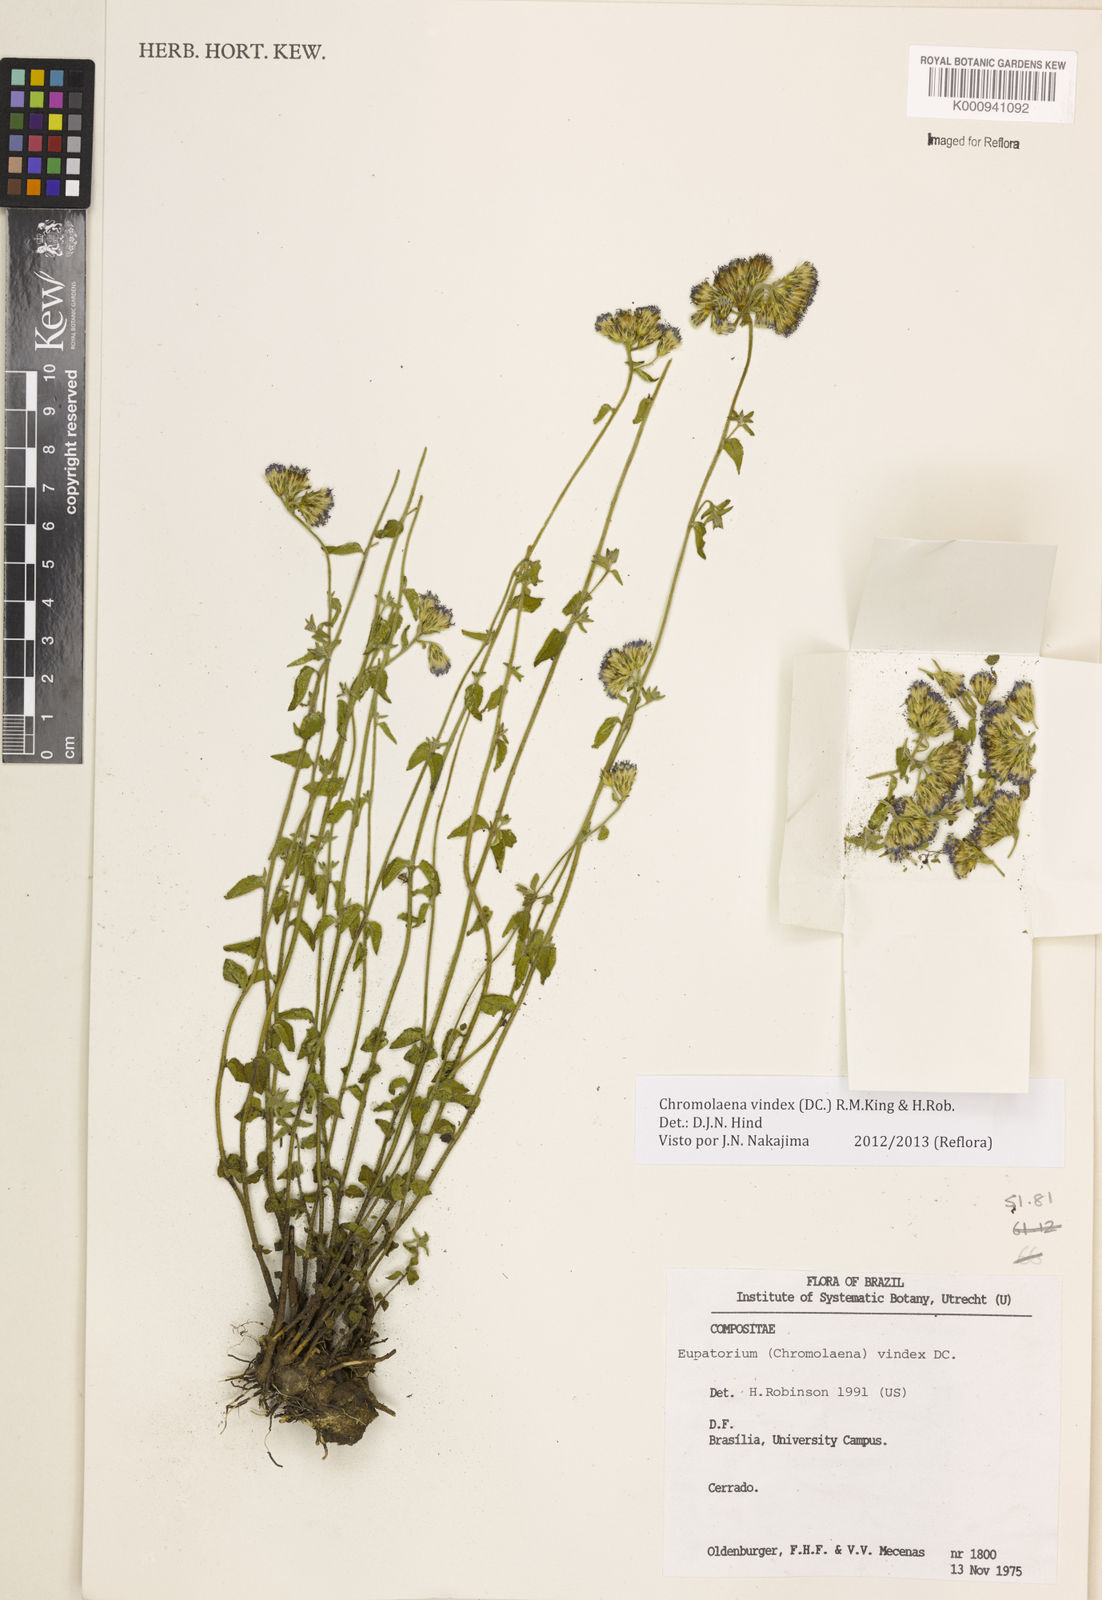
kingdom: Plantae
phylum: Tracheophyta
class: Magnoliopsida
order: Asterales
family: Asteraceae
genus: Chromolaena
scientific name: Chromolaena vindex
